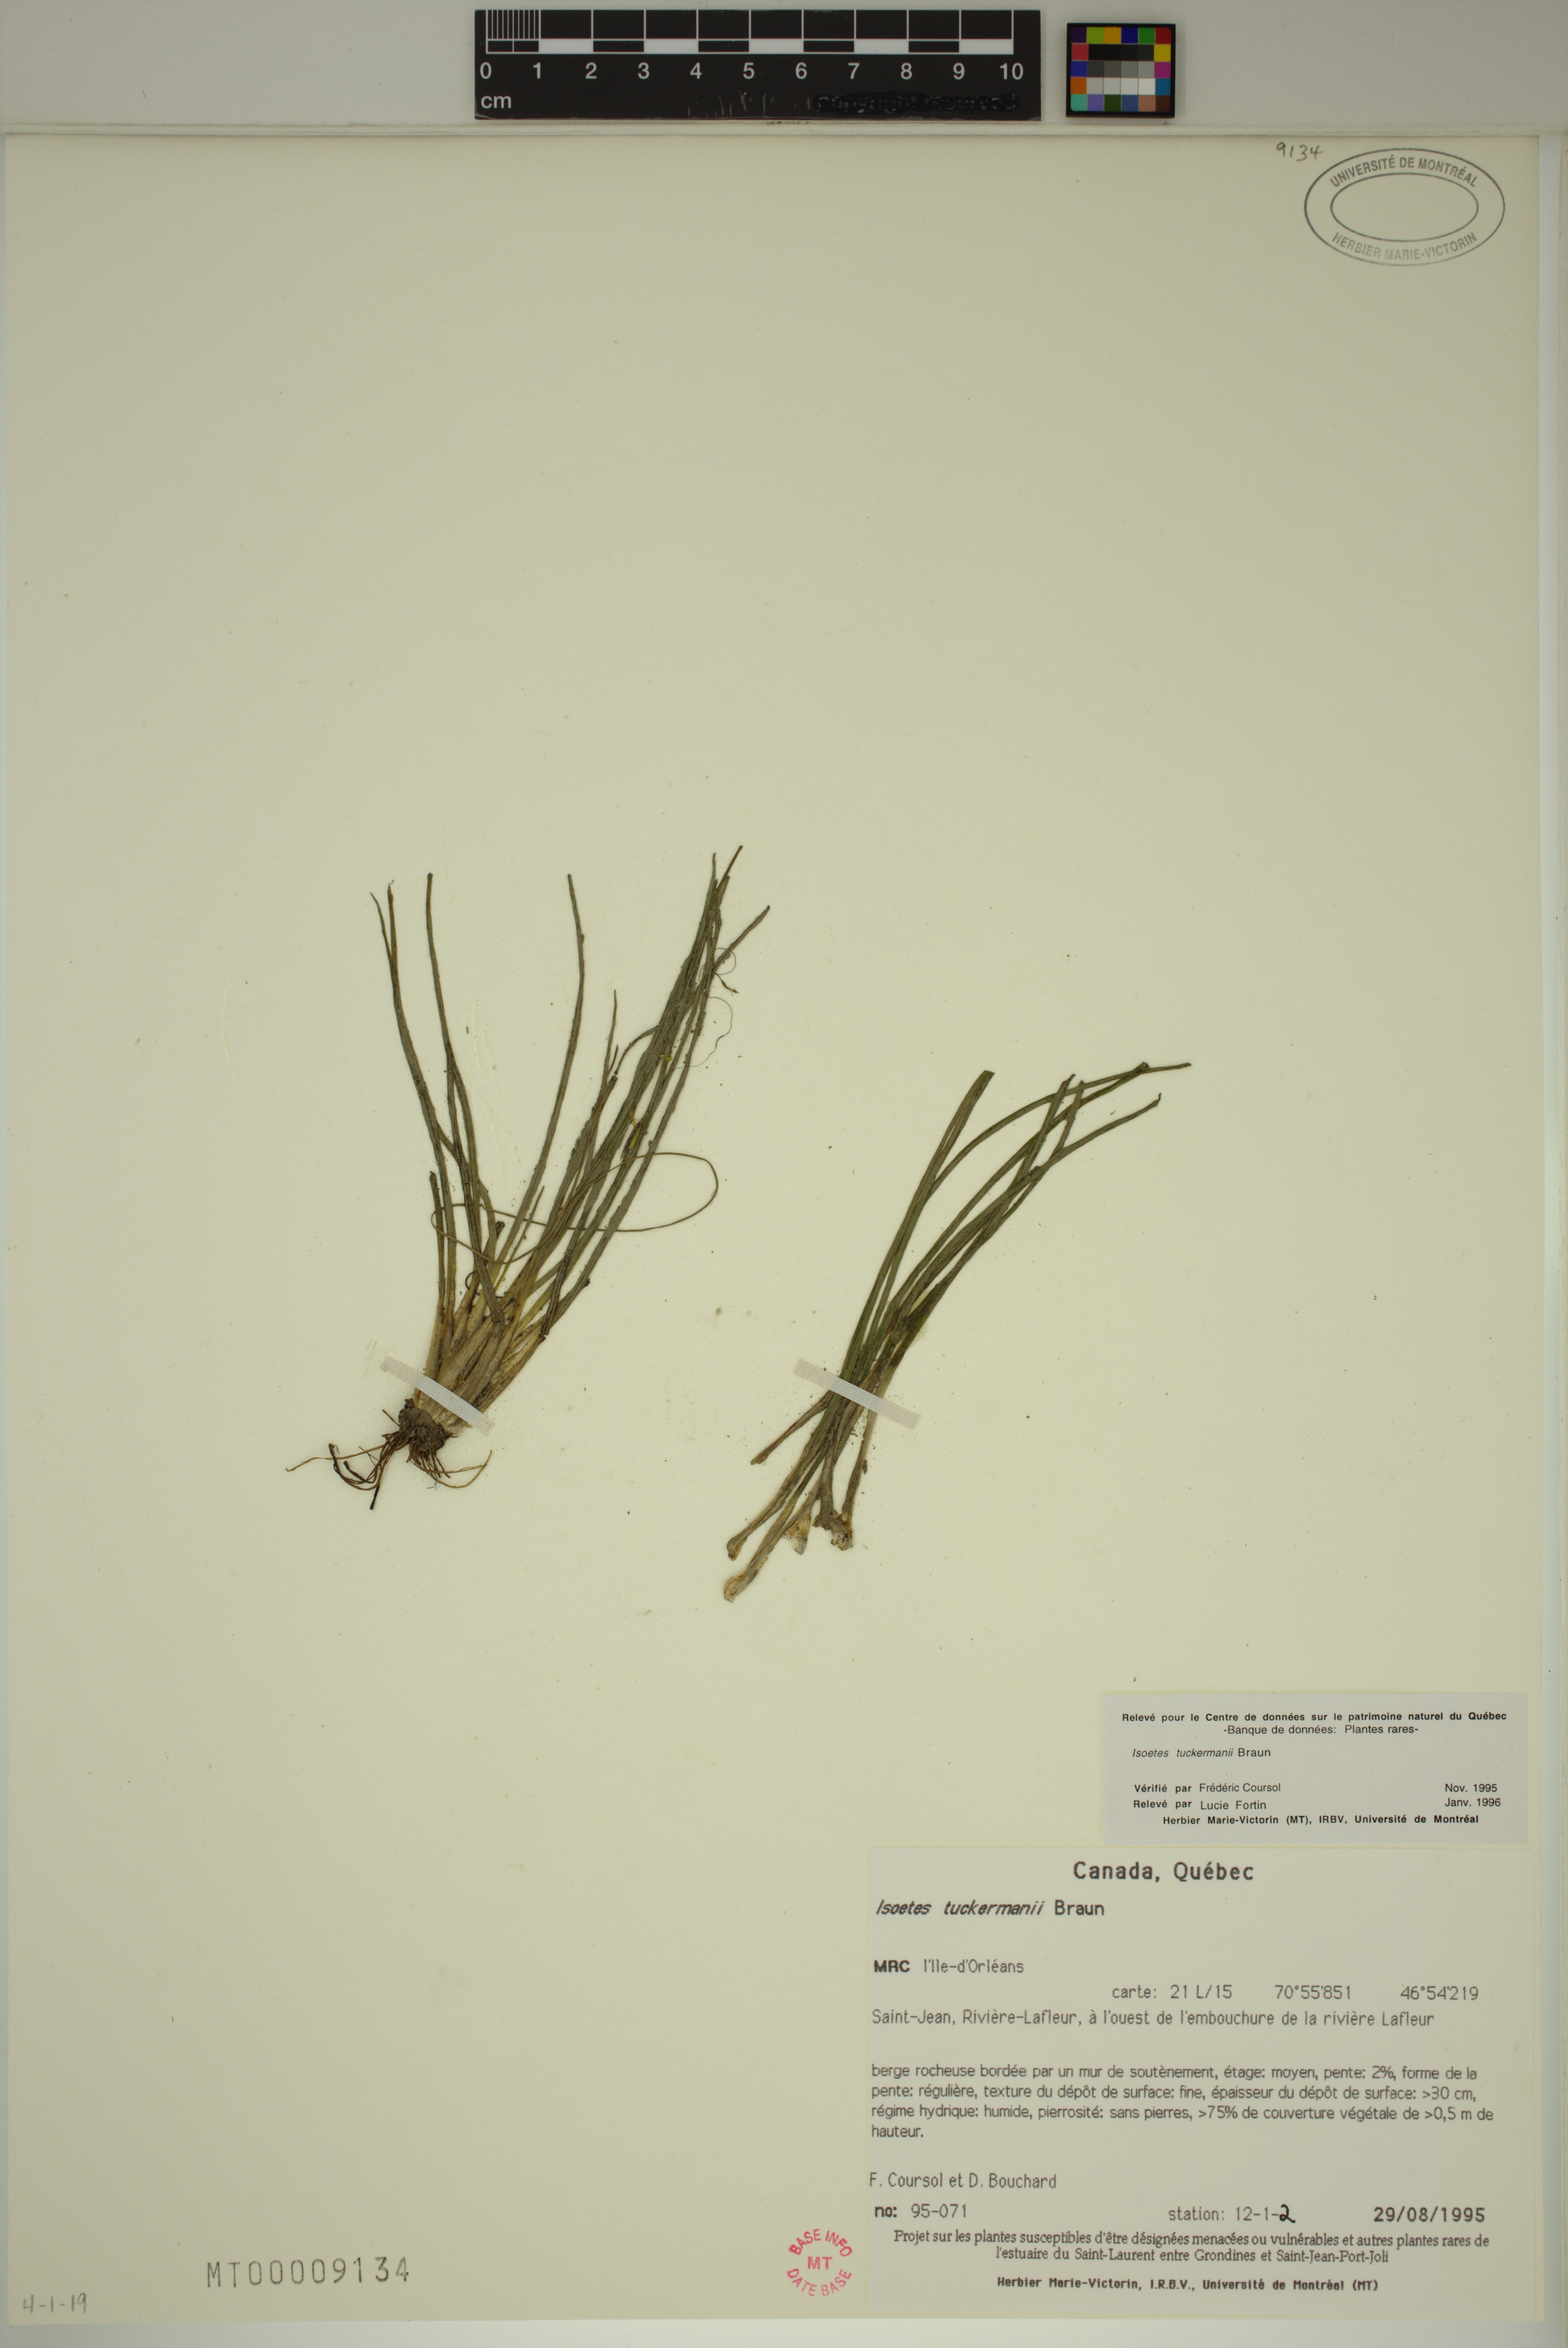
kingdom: Plantae
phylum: Tracheophyta
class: Lycopodiopsida
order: Isoetales
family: Isoetaceae
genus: Isoetes
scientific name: Isoetes laurentiana
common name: St. lawrence quillwort
